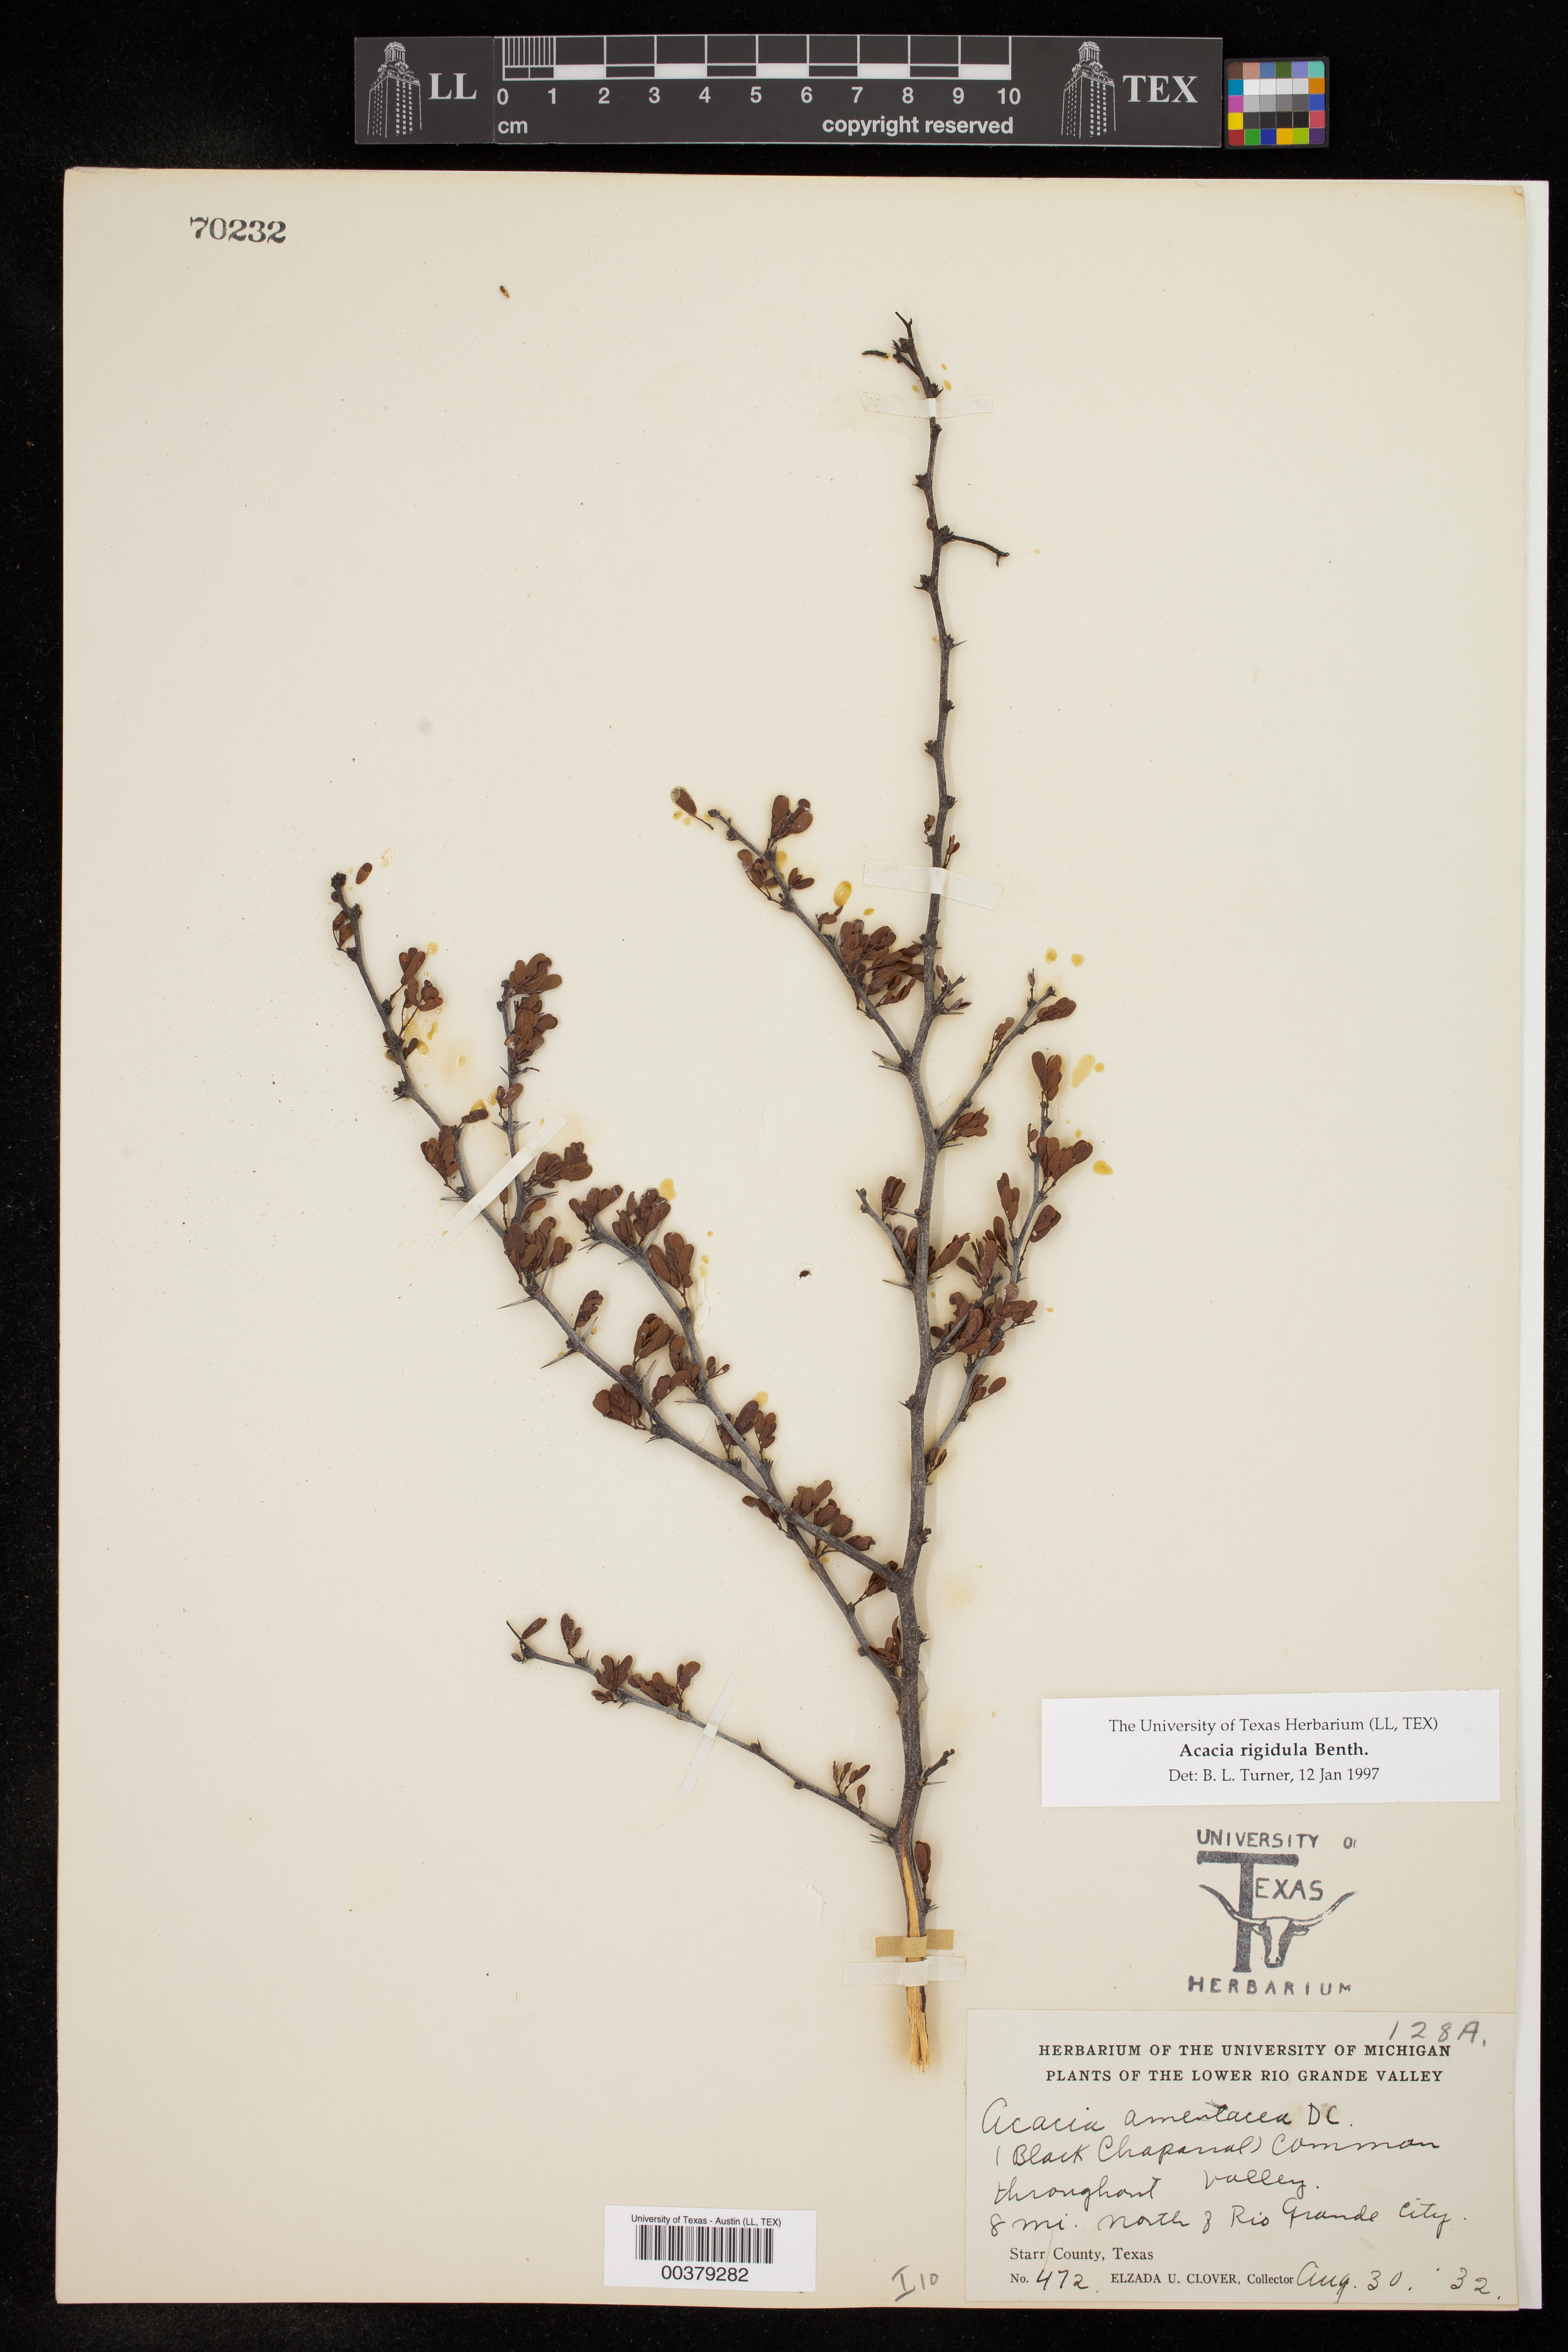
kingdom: Plantae
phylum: Tracheophyta
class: Magnoliopsida
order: Fabales
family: Fabaceae
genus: Vachellia
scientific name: Vachellia rigidula
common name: Blackbrush
